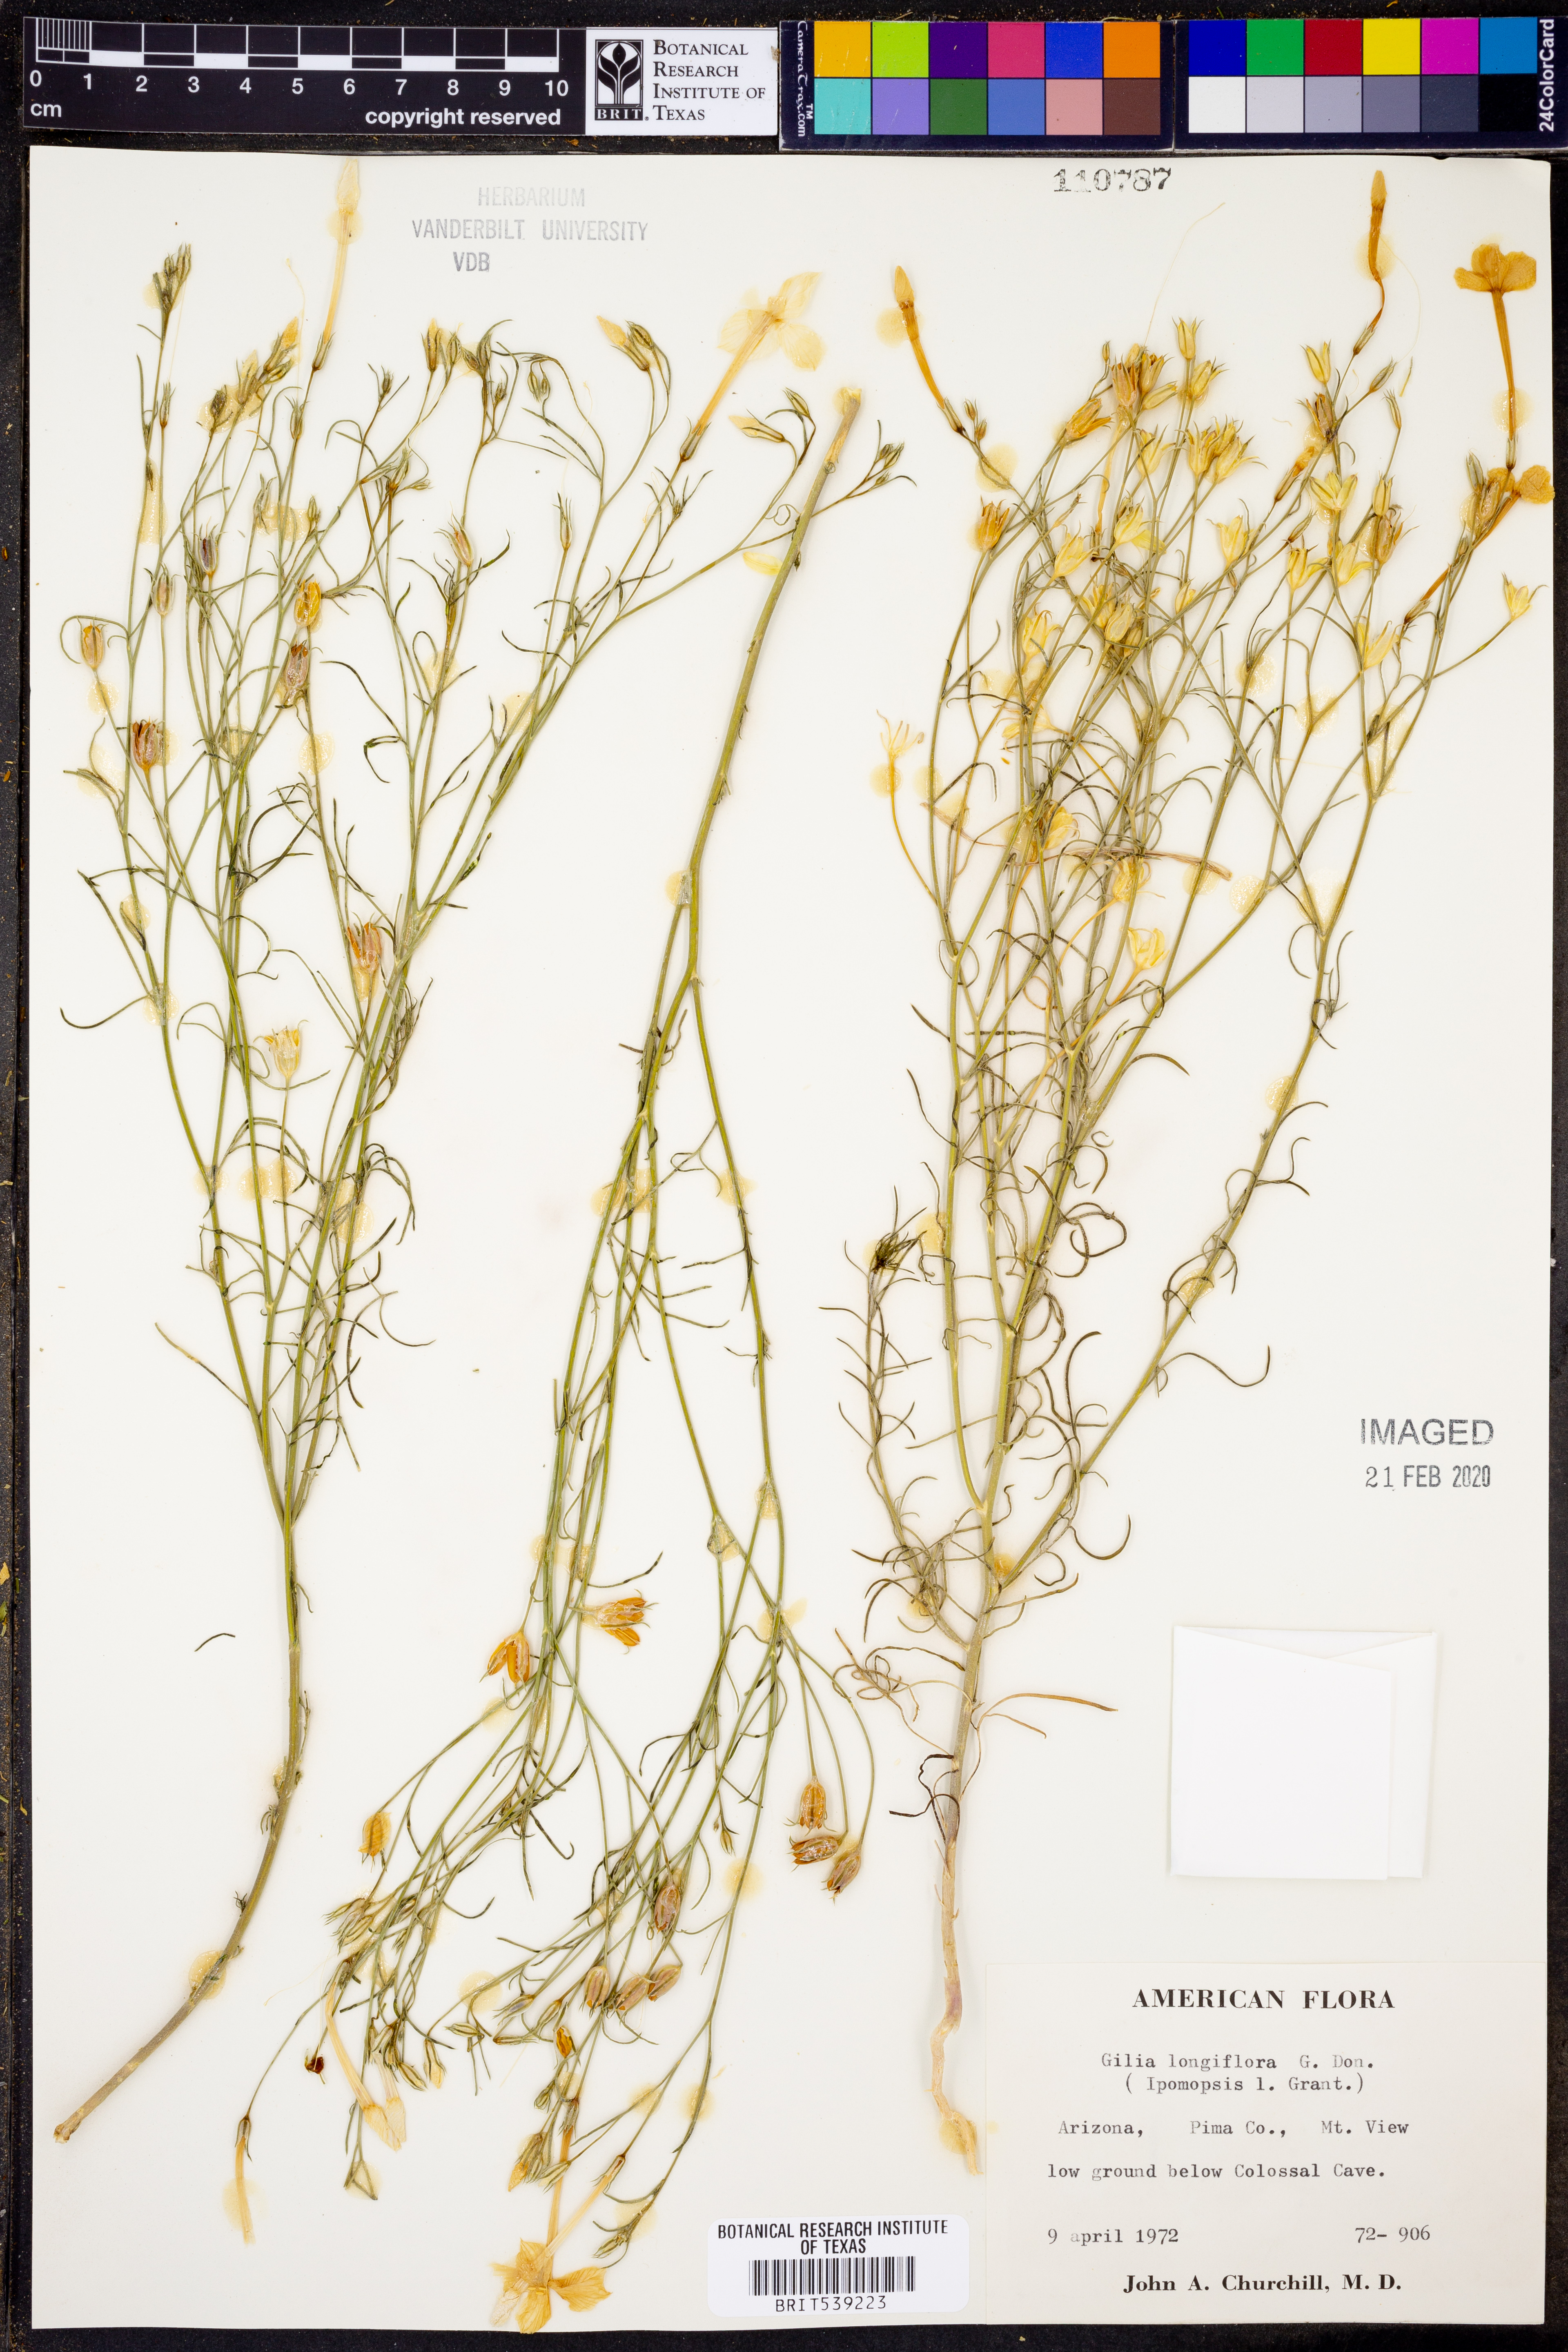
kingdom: Plantae
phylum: Tracheophyta
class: Magnoliopsida
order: Ericales
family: Polemoniaceae
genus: Ipomopsis
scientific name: Ipomopsis longiflora
